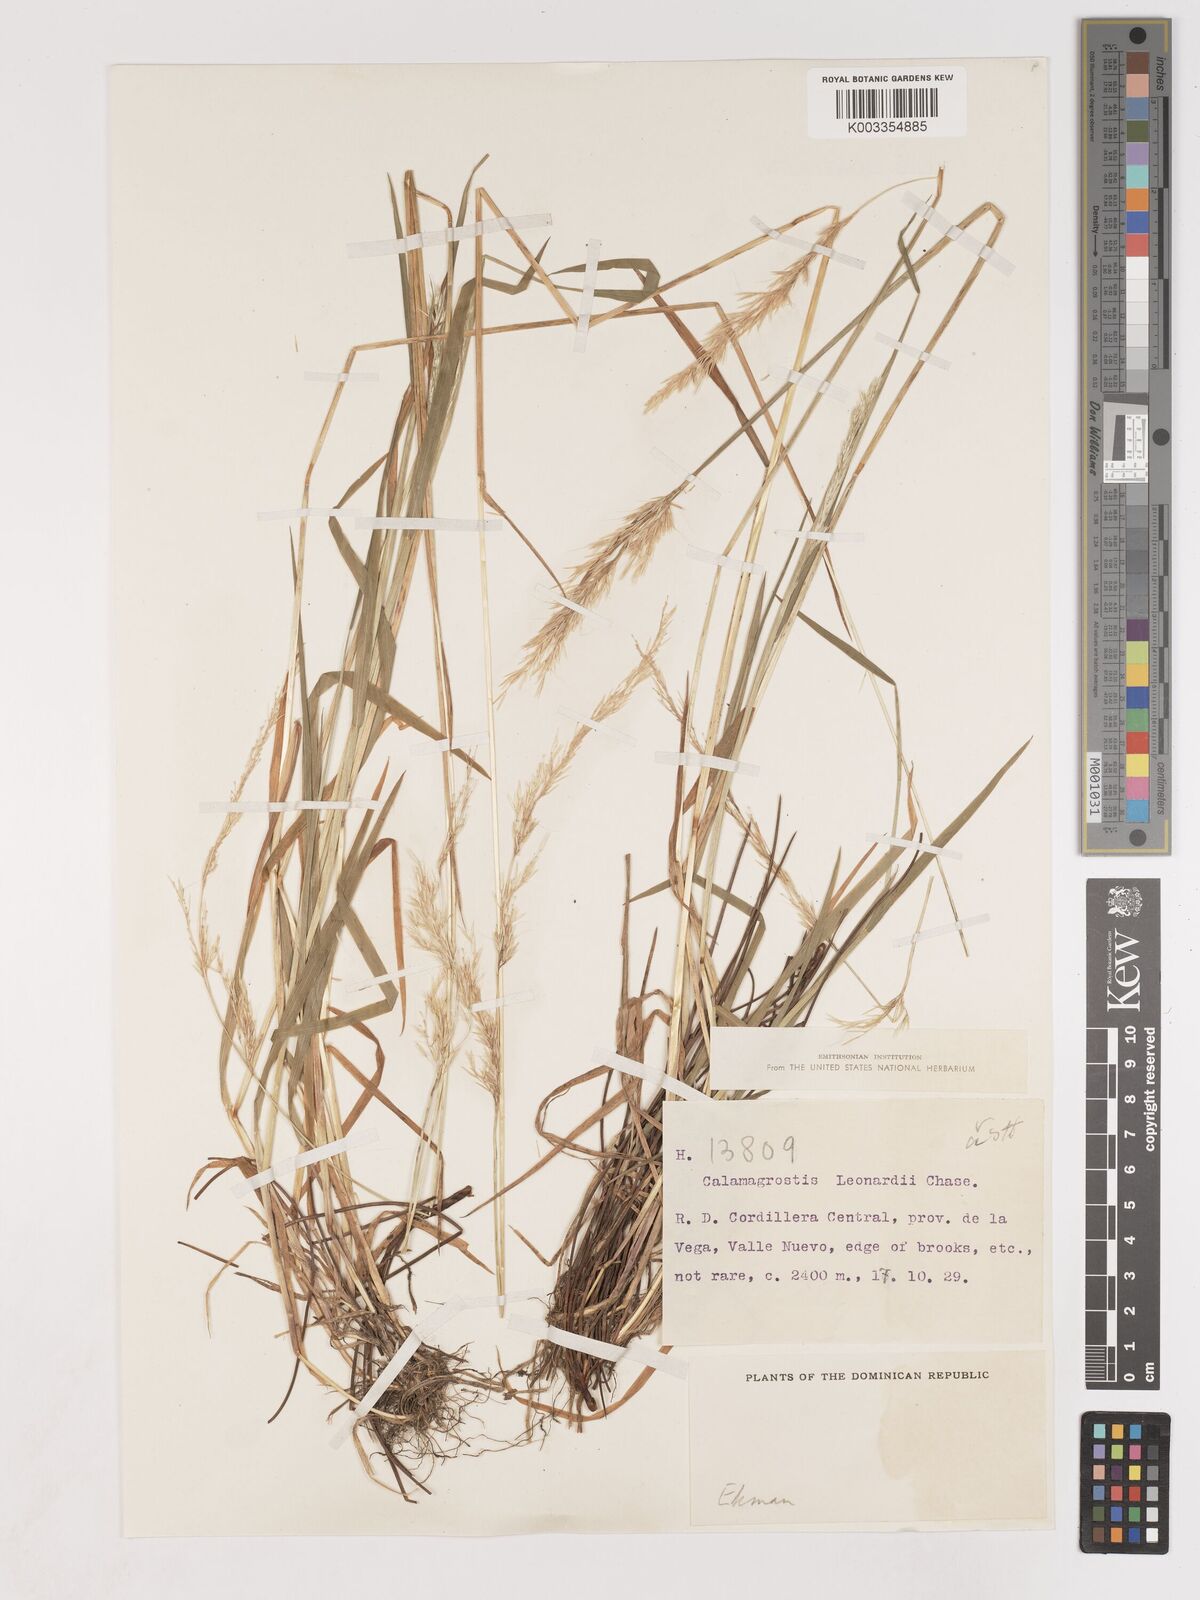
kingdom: Plantae
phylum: Tracheophyta
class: Liliopsida
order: Poales
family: Poaceae
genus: Calamagrostis
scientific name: Calamagrostis
